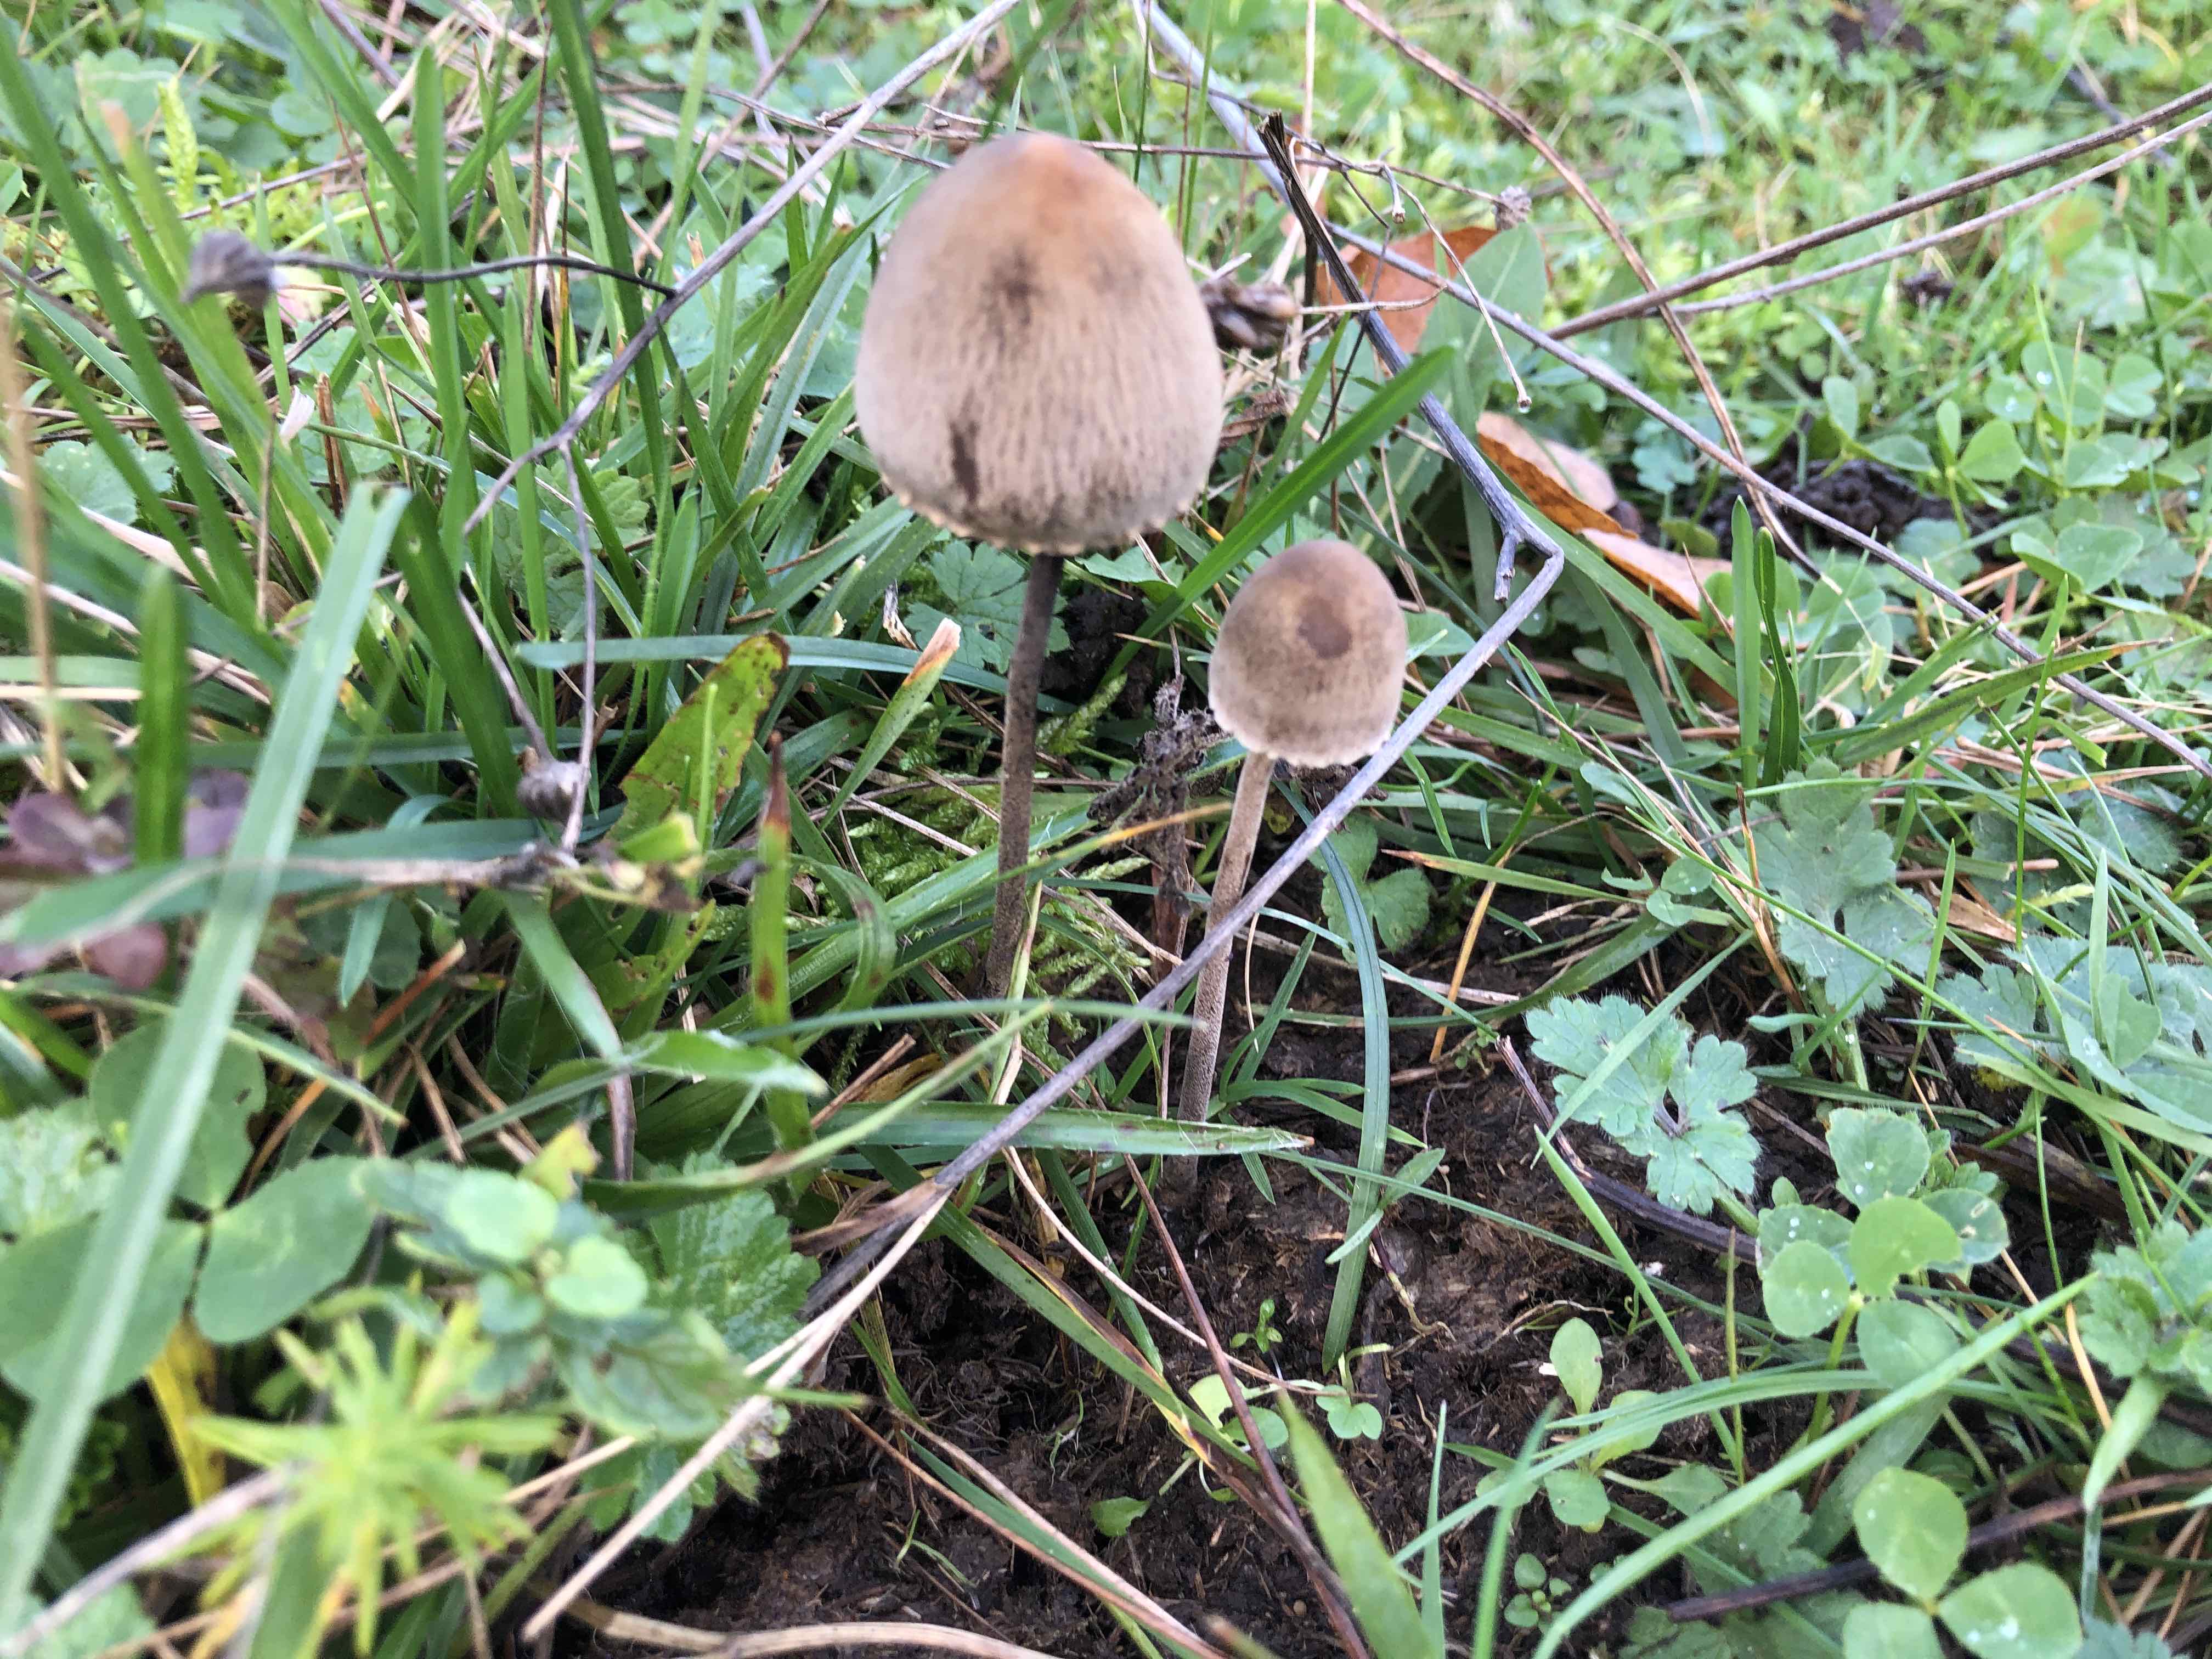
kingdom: Fungi
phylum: Basidiomycota
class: Agaricomycetes
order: Agaricales
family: Bolbitiaceae
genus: Panaeolus
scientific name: Panaeolus papilionaceus
